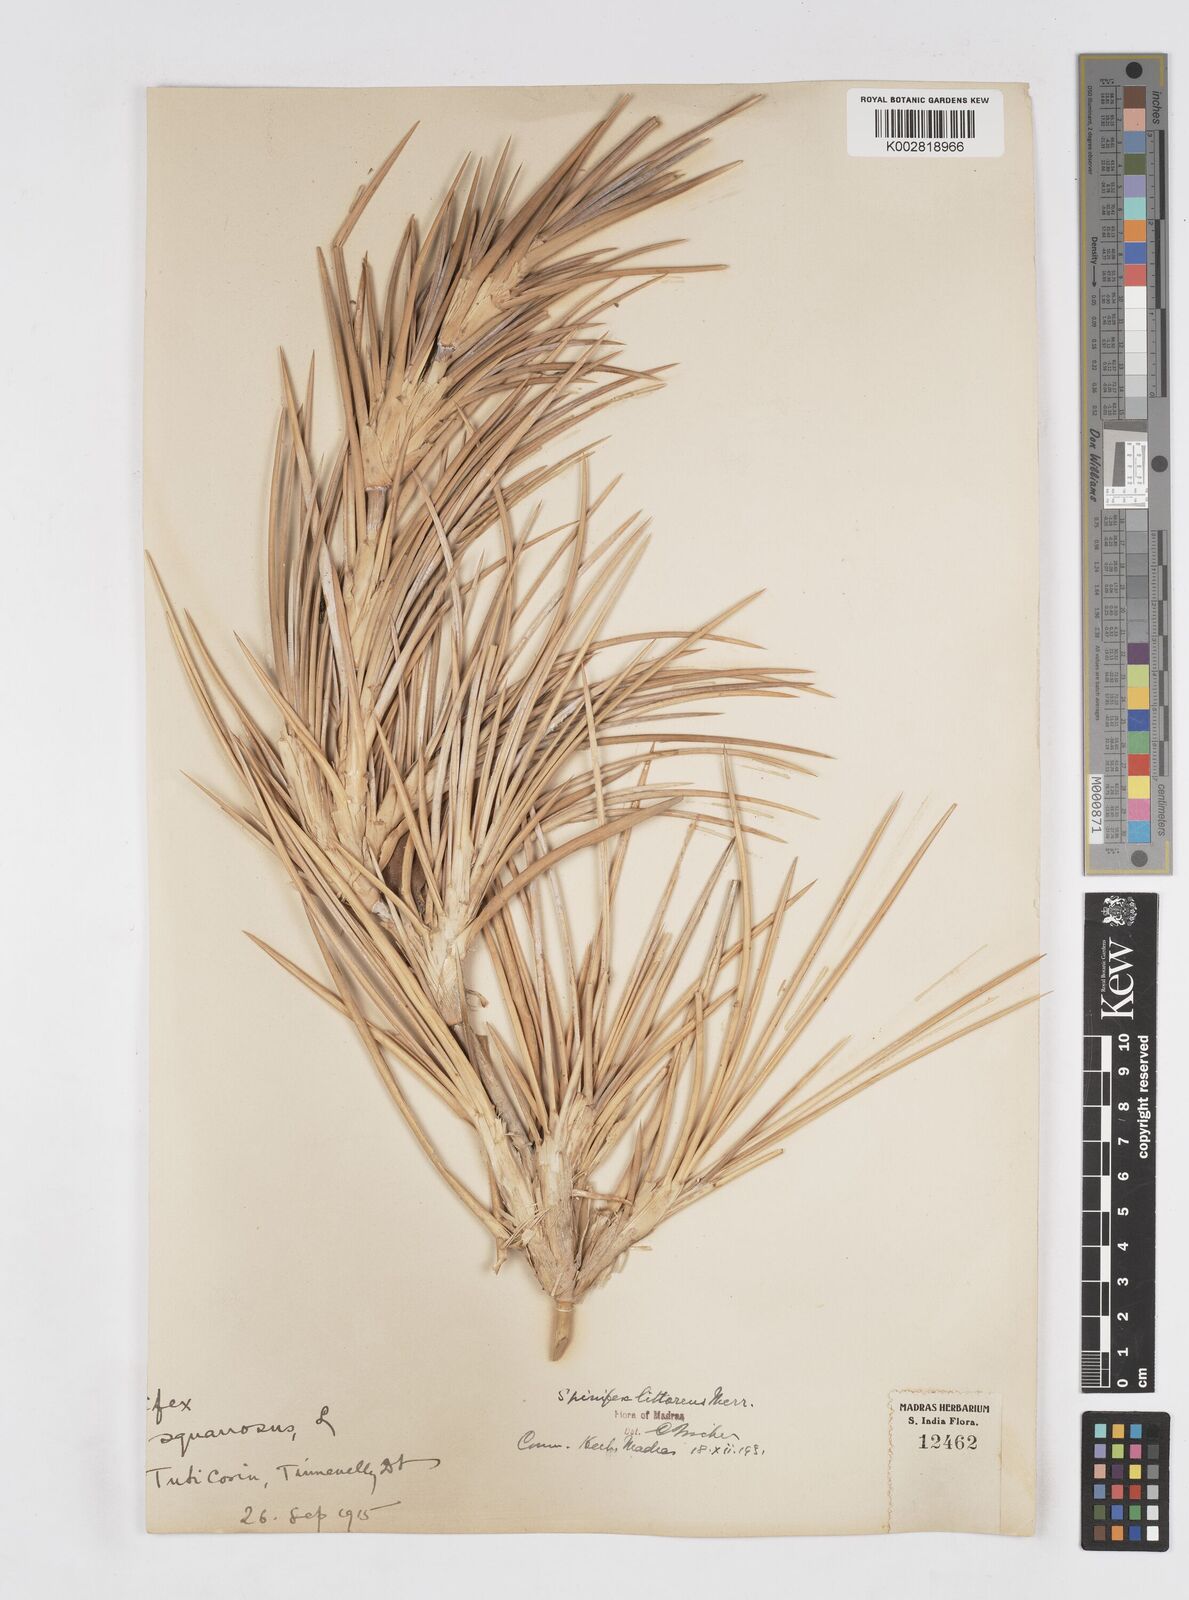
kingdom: Plantae
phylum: Tracheophyta
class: Liliopsida
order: Poales
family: Poaceae
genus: Spinifex
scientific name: Spinifex littoreus
